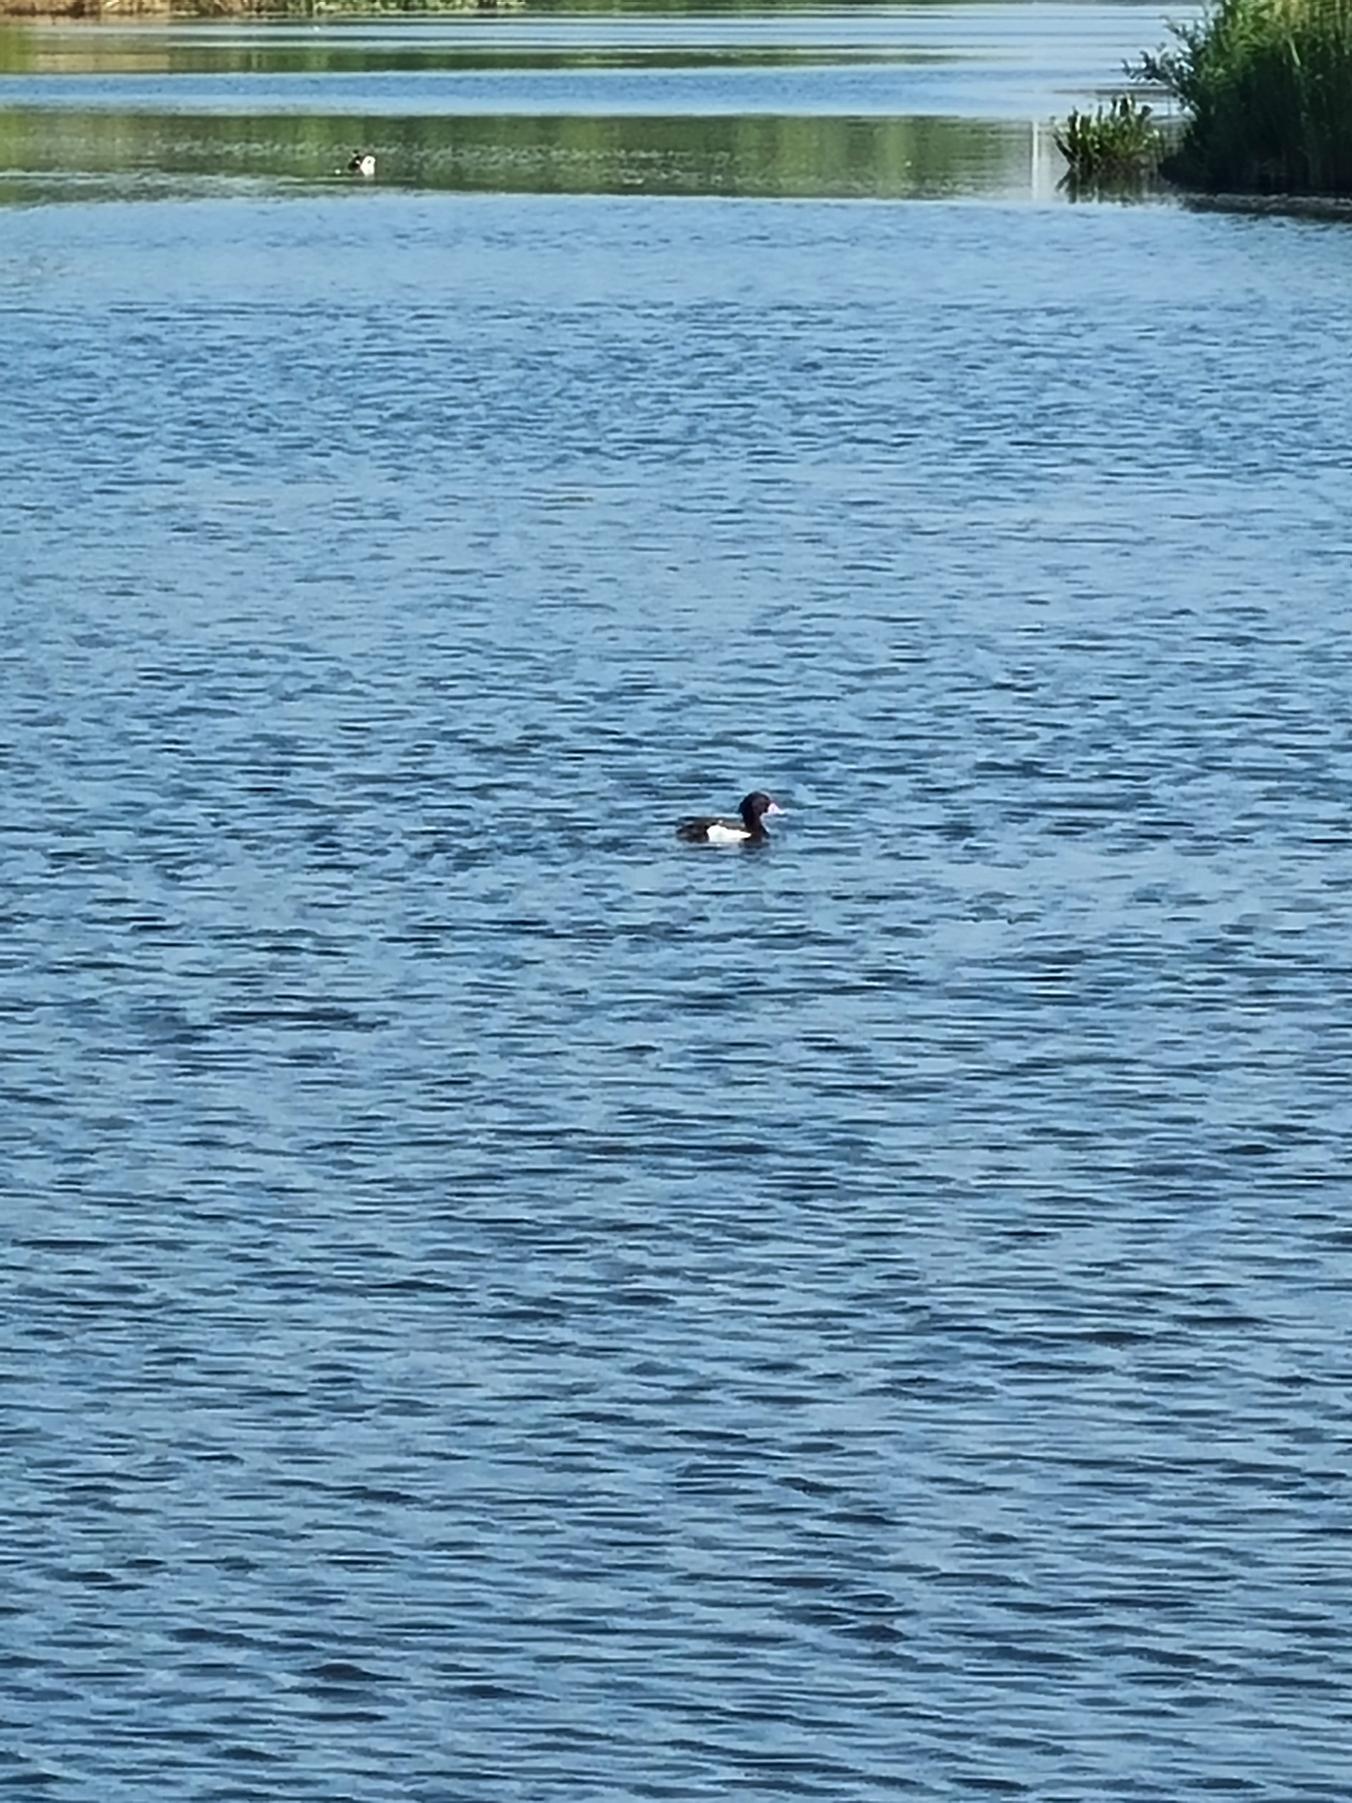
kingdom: Animalia
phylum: Chordata
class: Aves
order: Anseriformes
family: Anatidae
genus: Aythya
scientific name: Aythya fuligula
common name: Troldand
